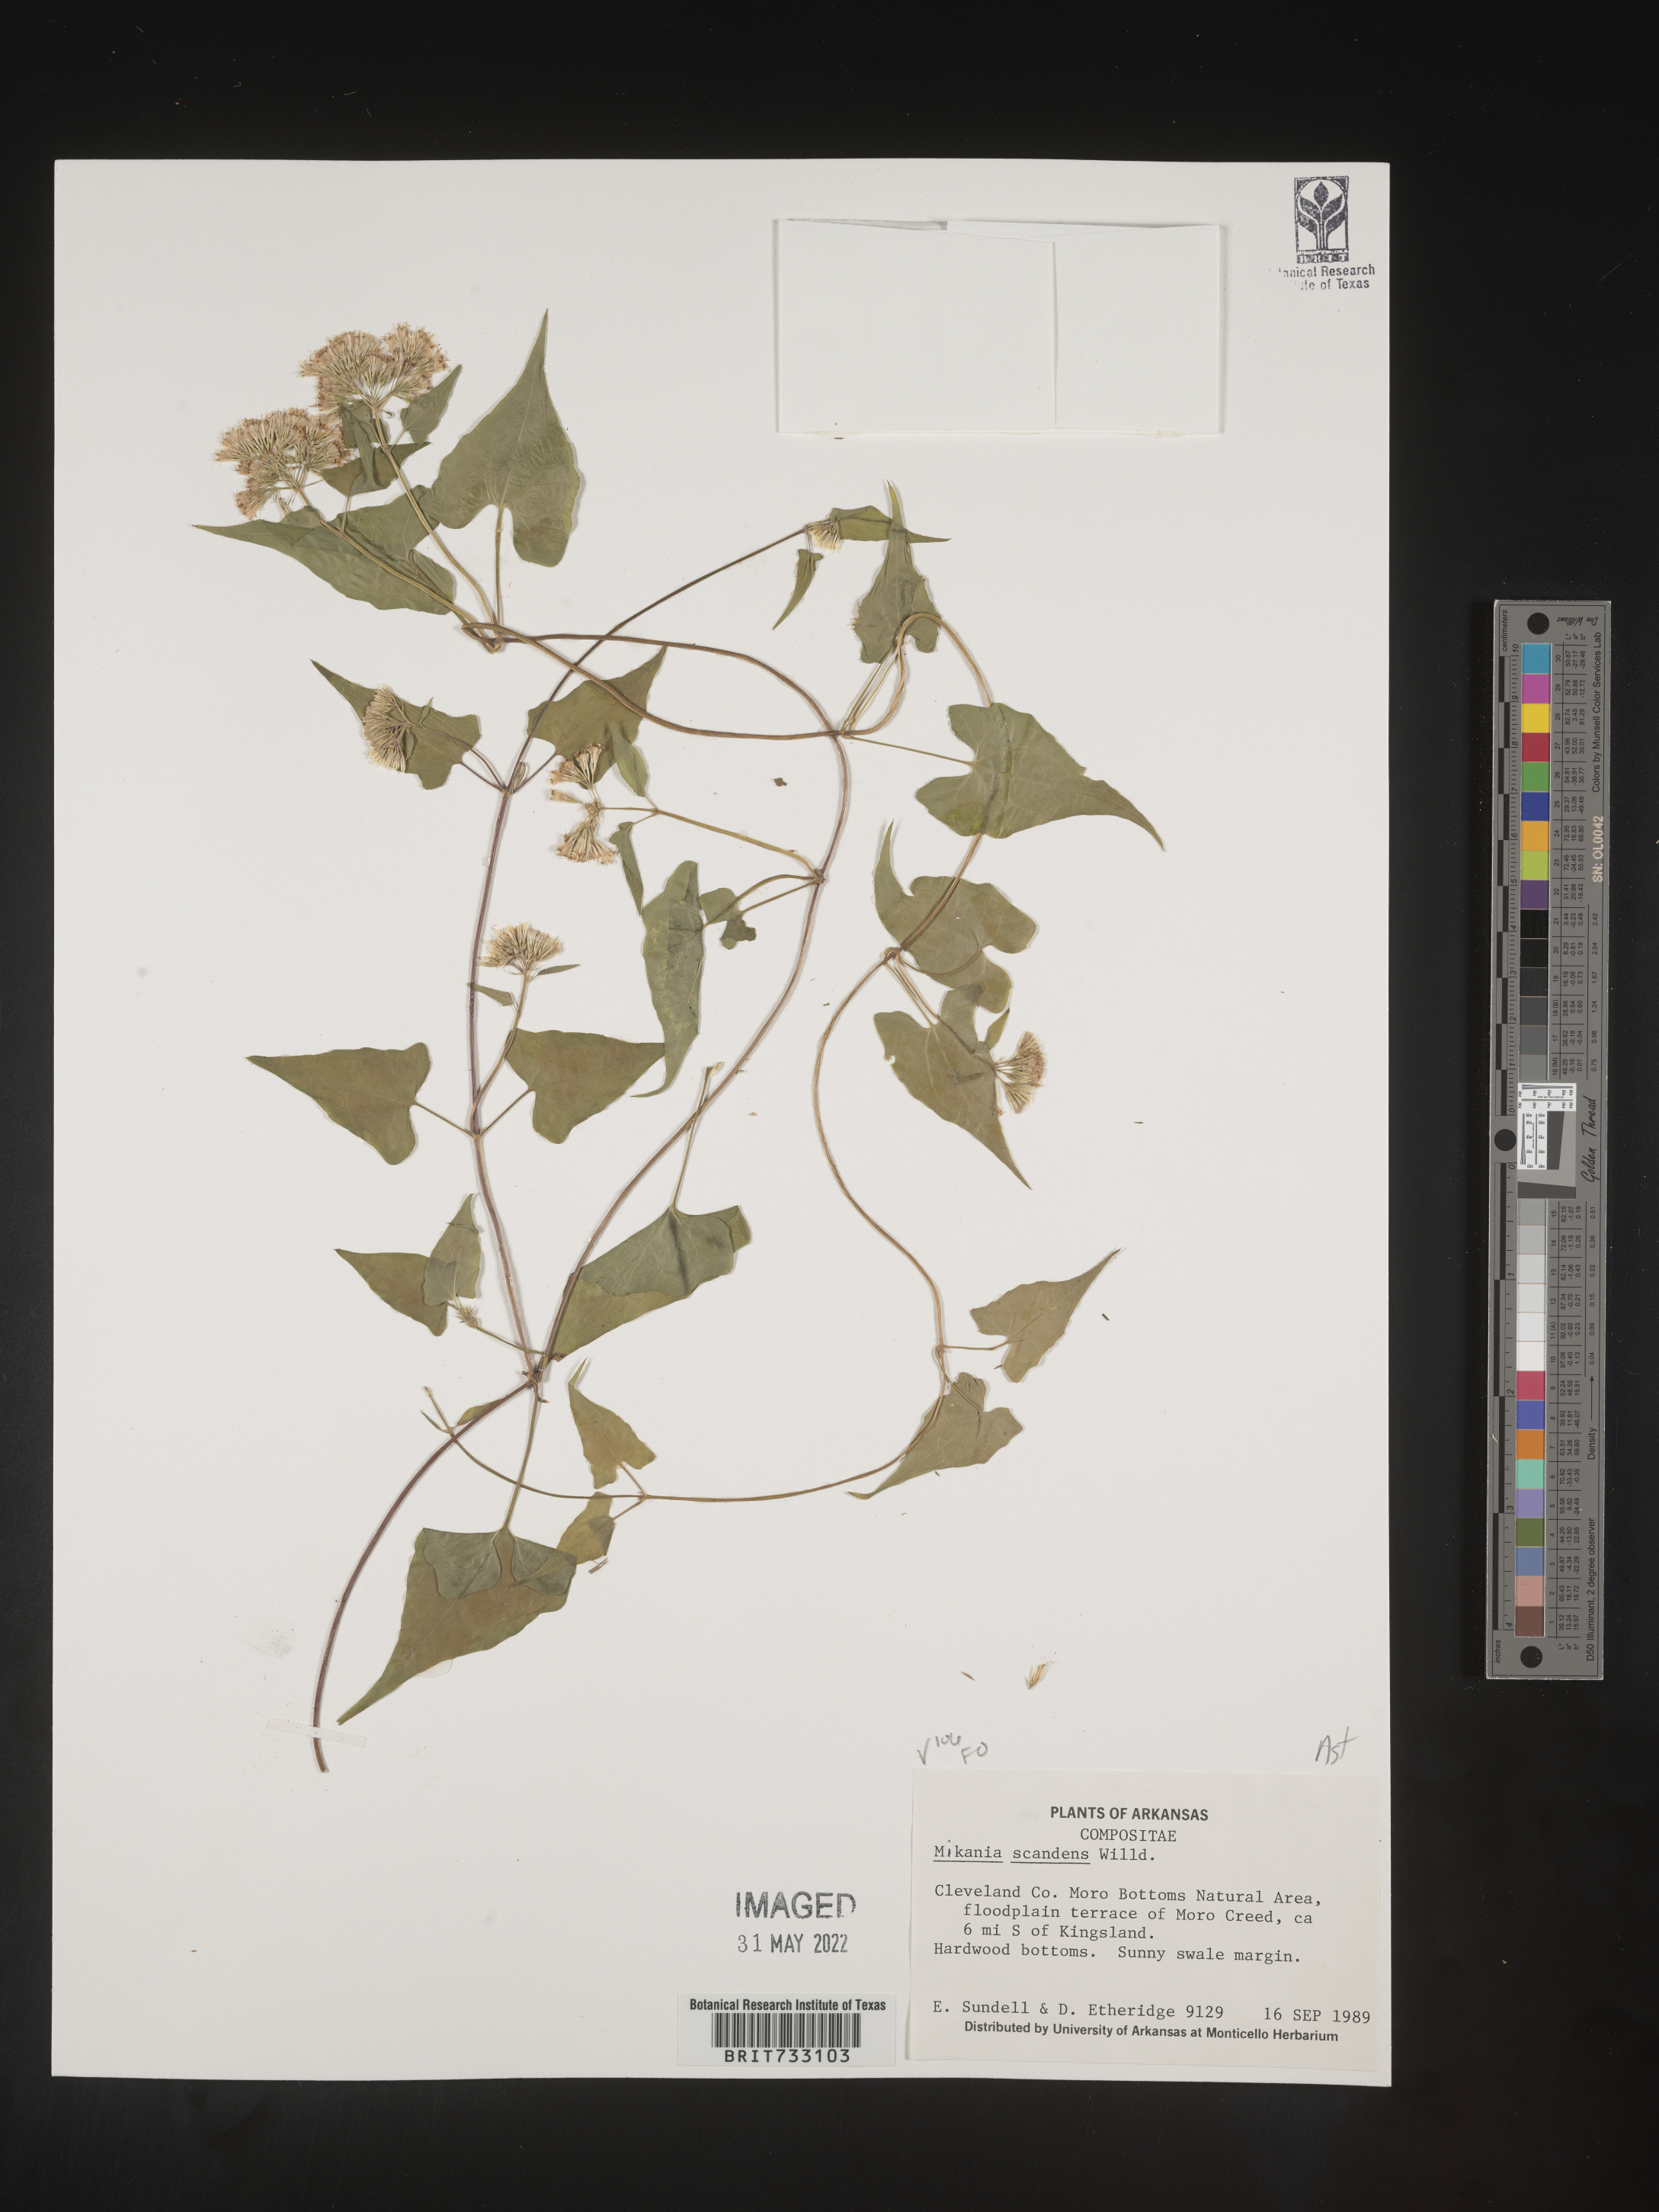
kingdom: Plantae
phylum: Tracheophyta
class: Magnoliopsida
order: Asterales
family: Asteraceae
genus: Mikania
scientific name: Mikania scandens
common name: Climbing hempvine
